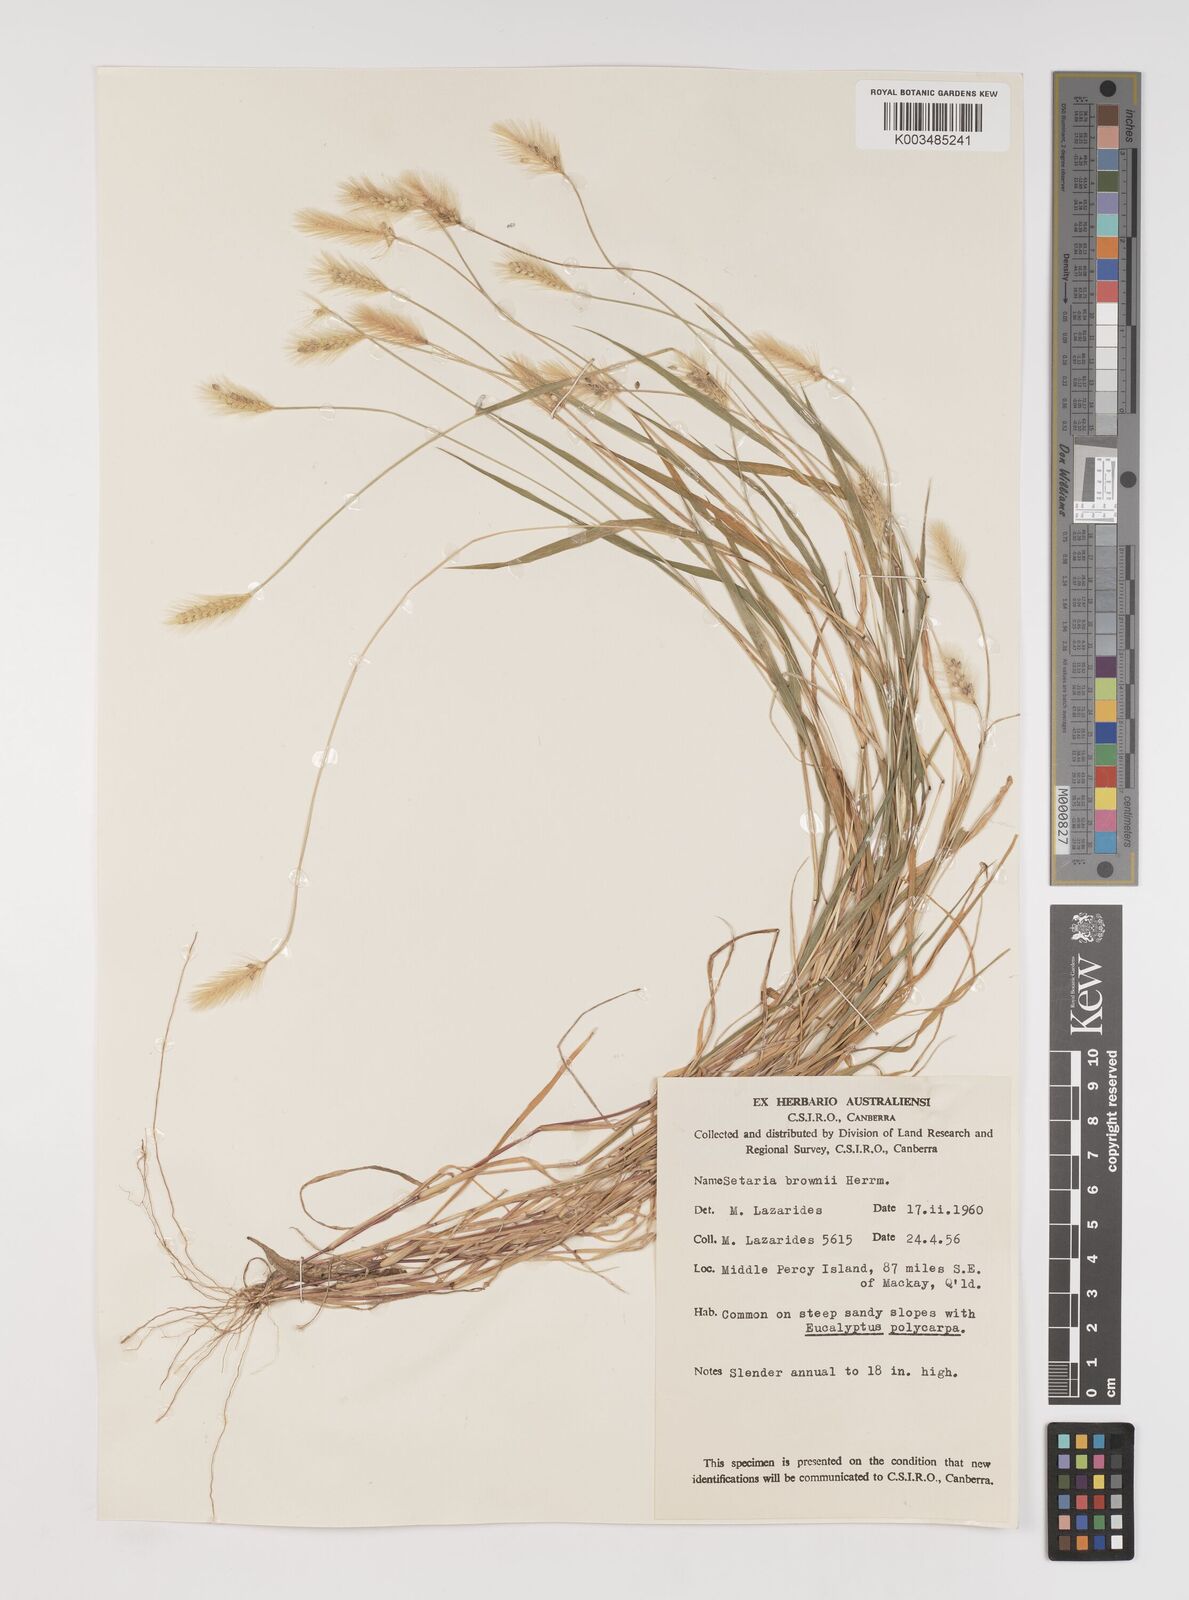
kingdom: Plantae
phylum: Tracheophyta
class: Liliopsida
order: Poales
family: Poaceae
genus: Setaria
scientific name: Setaria surgens
